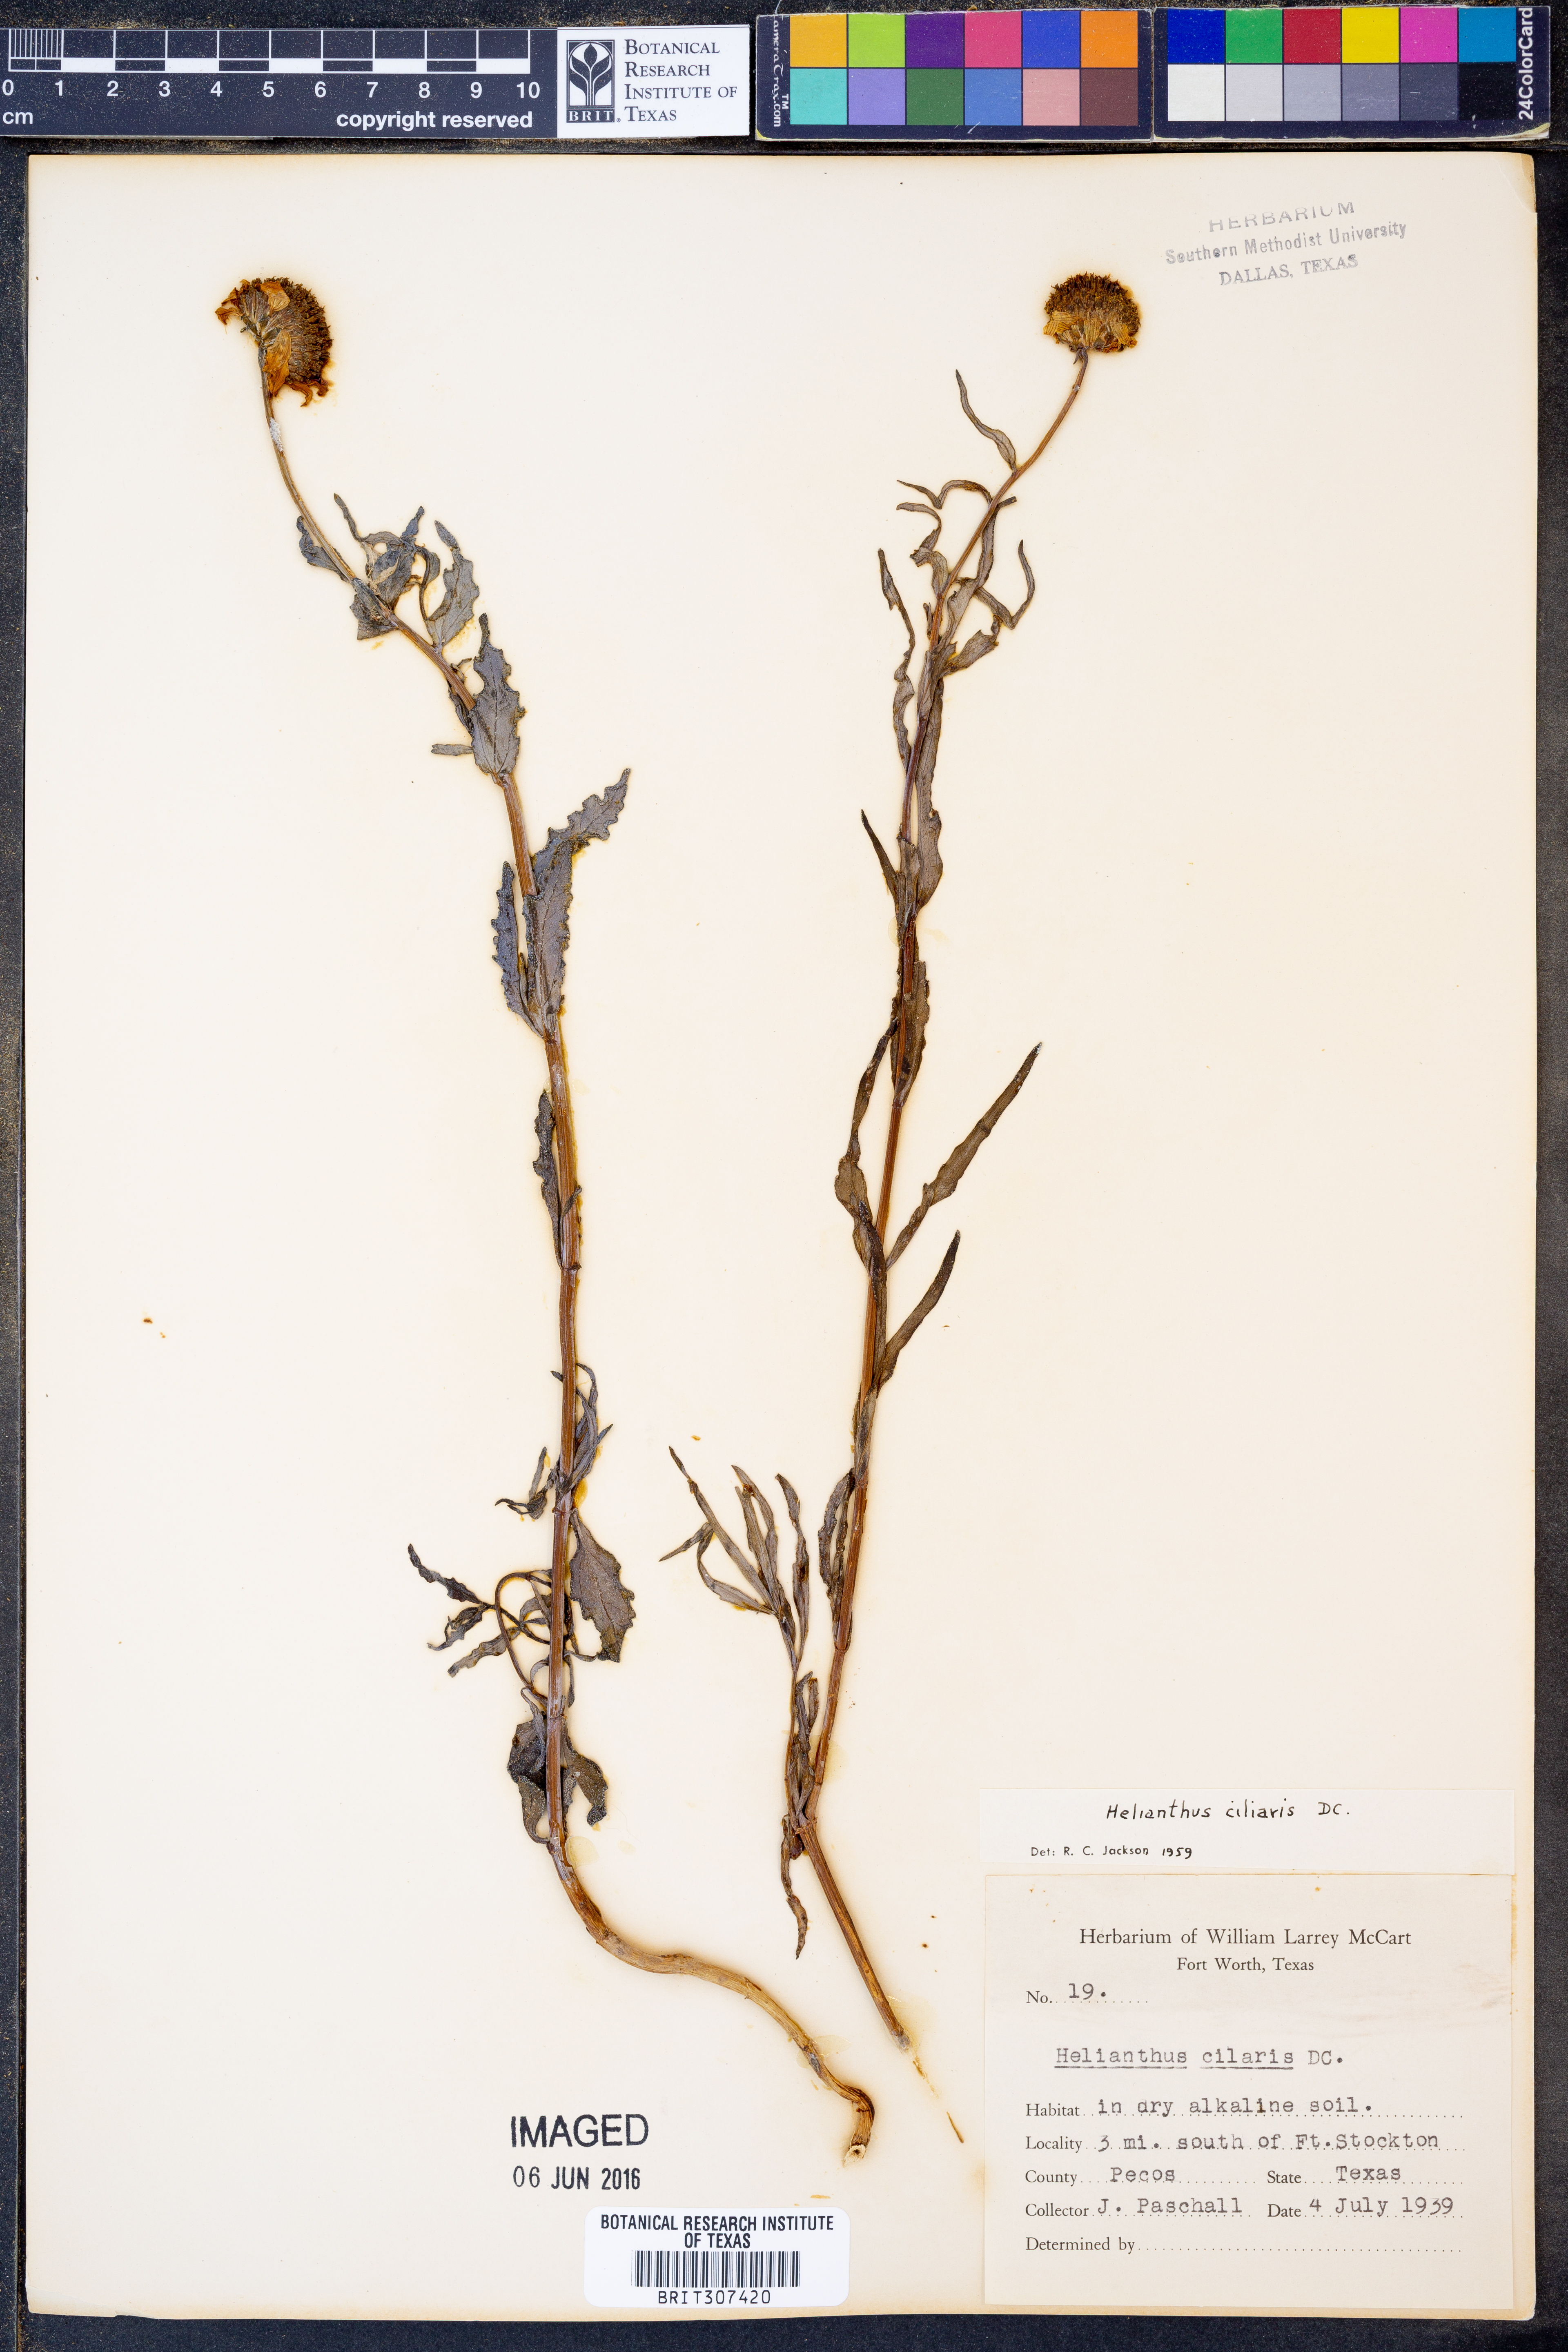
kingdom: Plantae
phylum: Tracheophyta
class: Magnoliopsida
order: Asterales
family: Asteraceae
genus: Helianthus
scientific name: Helianthus ciliaris
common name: Texas blueweed
